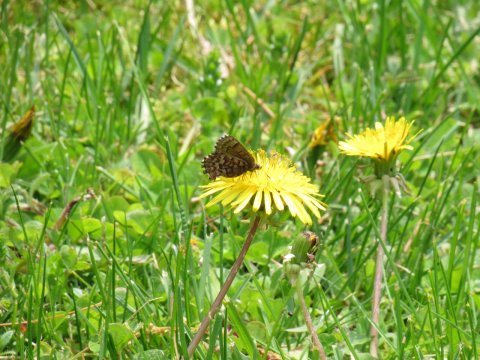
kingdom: Animalia
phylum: Arthropoda
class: Insecta
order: Lepidoptera
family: Lycaenidae
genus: Incisalia
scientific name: Incisalia niphon
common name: Eastern Pine Elfin
